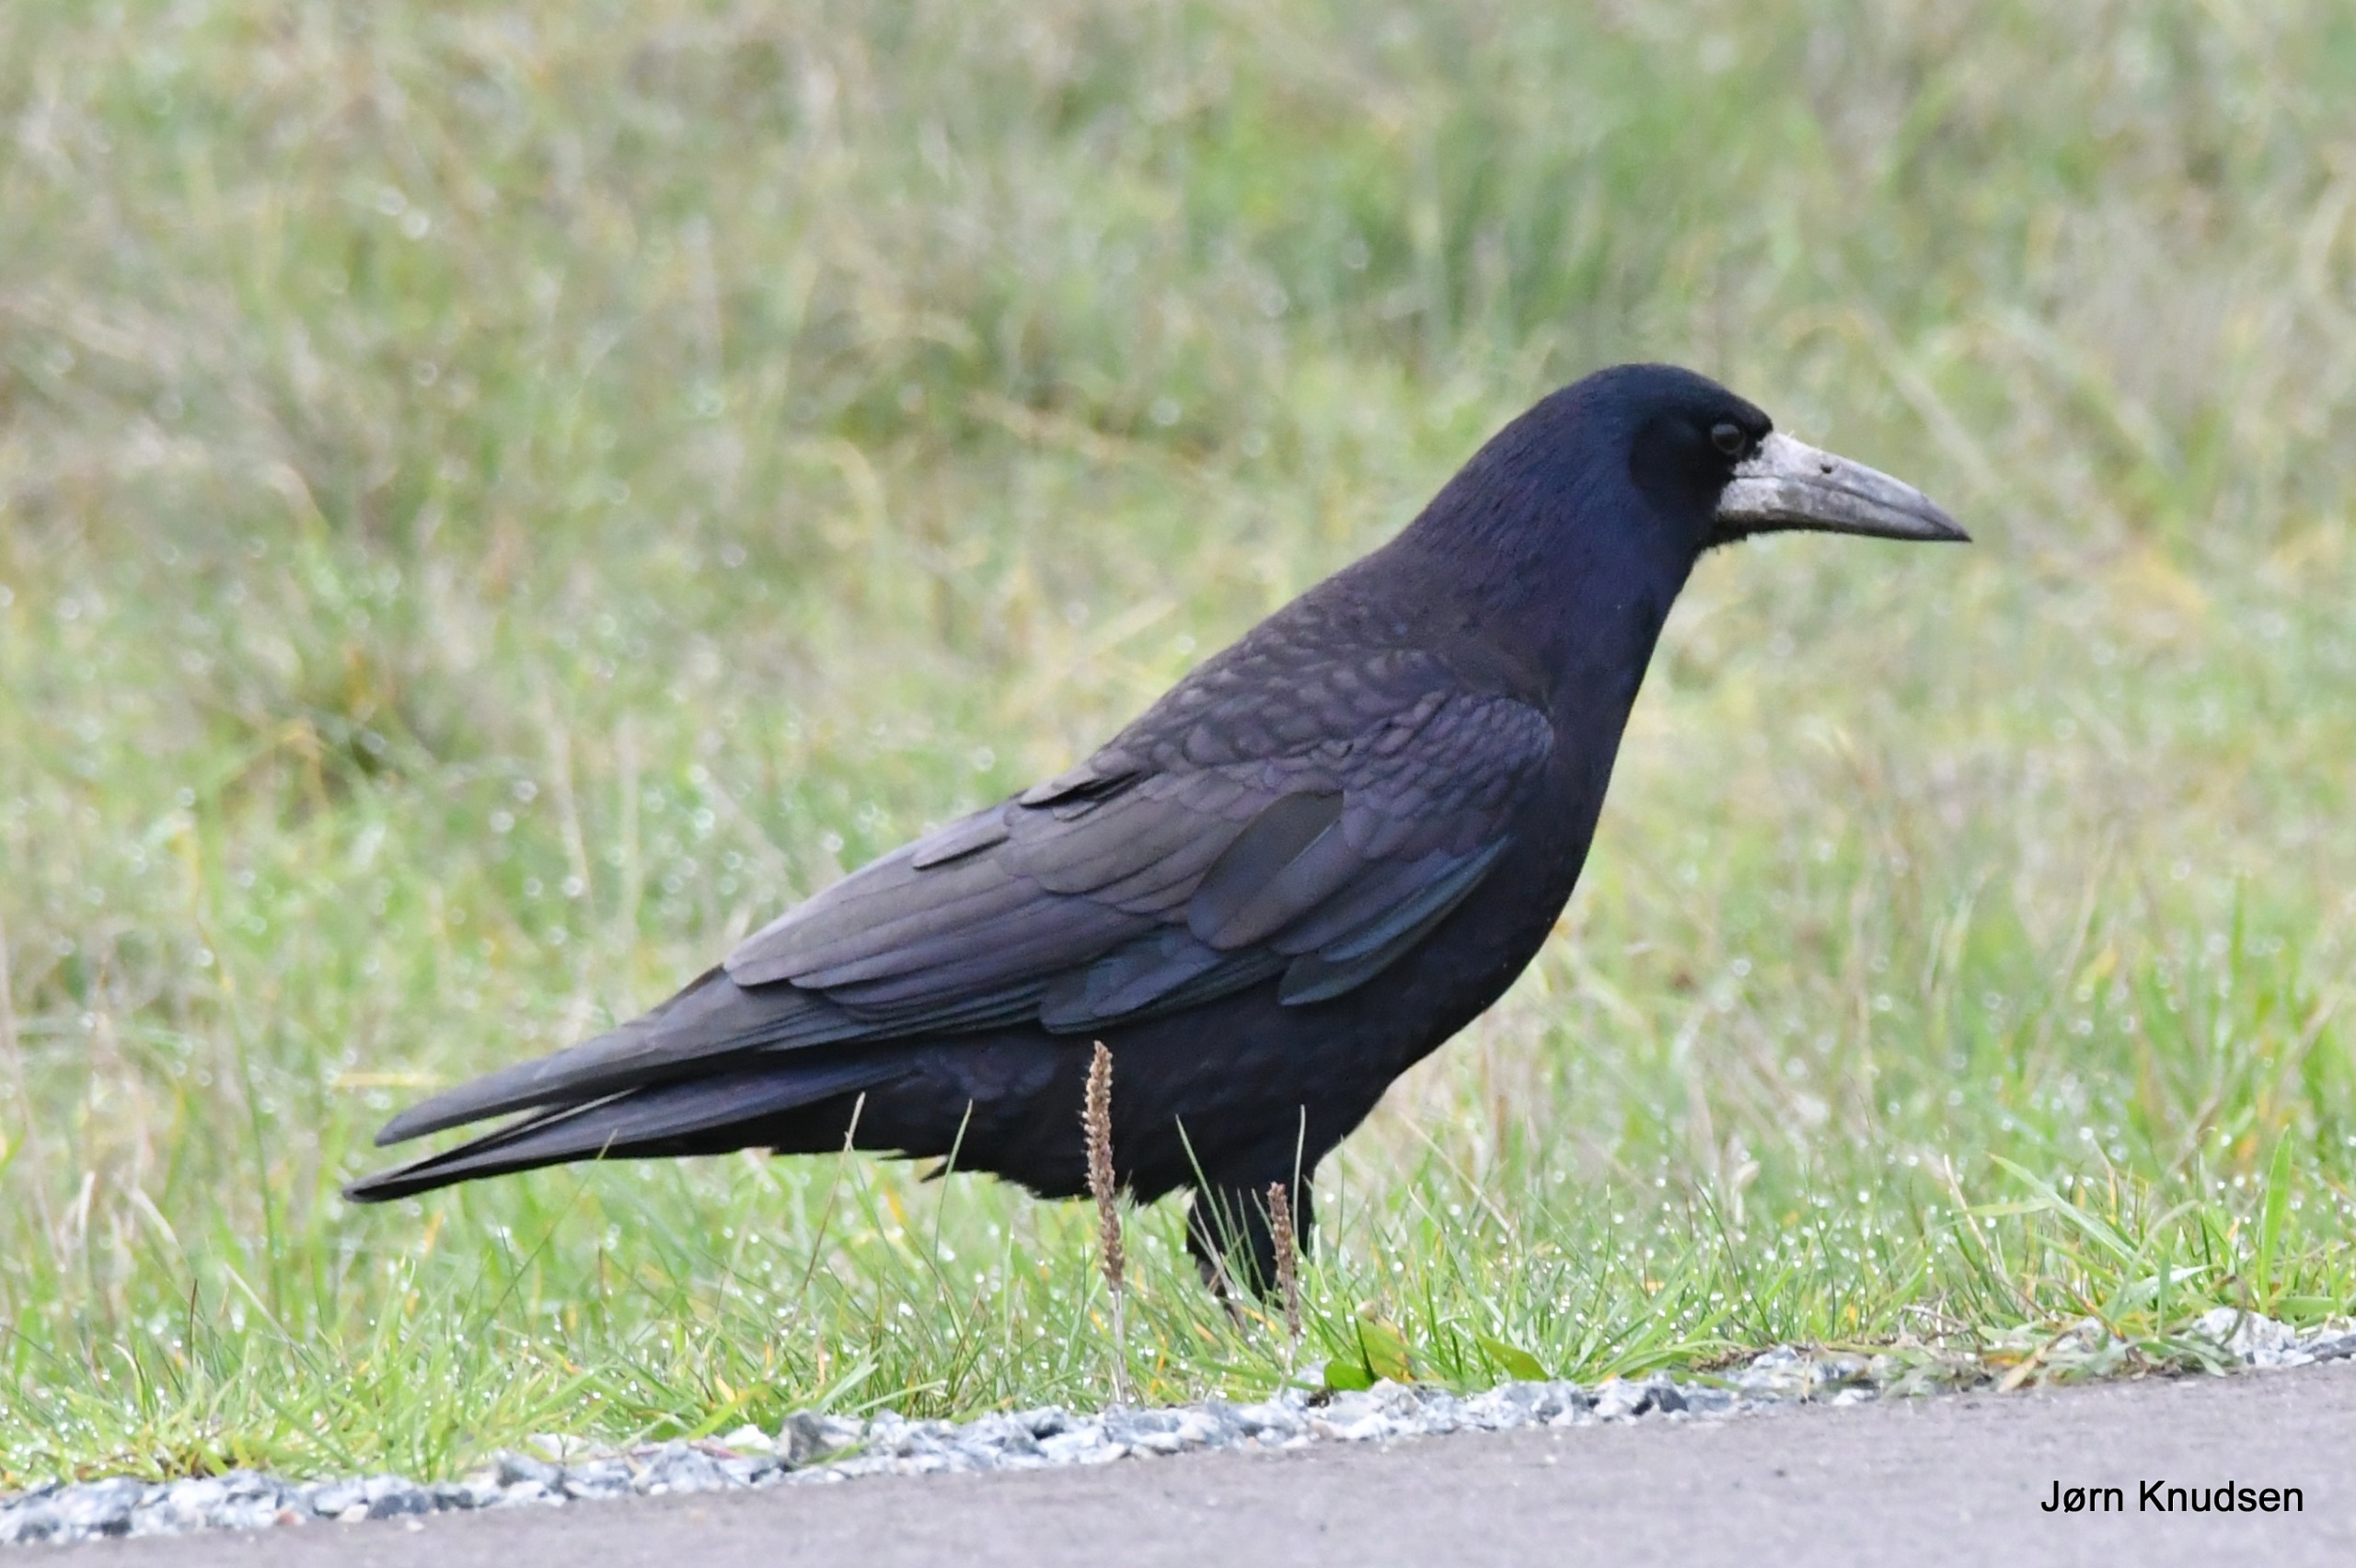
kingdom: Animalia
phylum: Chordata
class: Aves
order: Passeriformes
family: Corvidae
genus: Corvus
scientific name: Corvus frugilegus
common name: Råge
